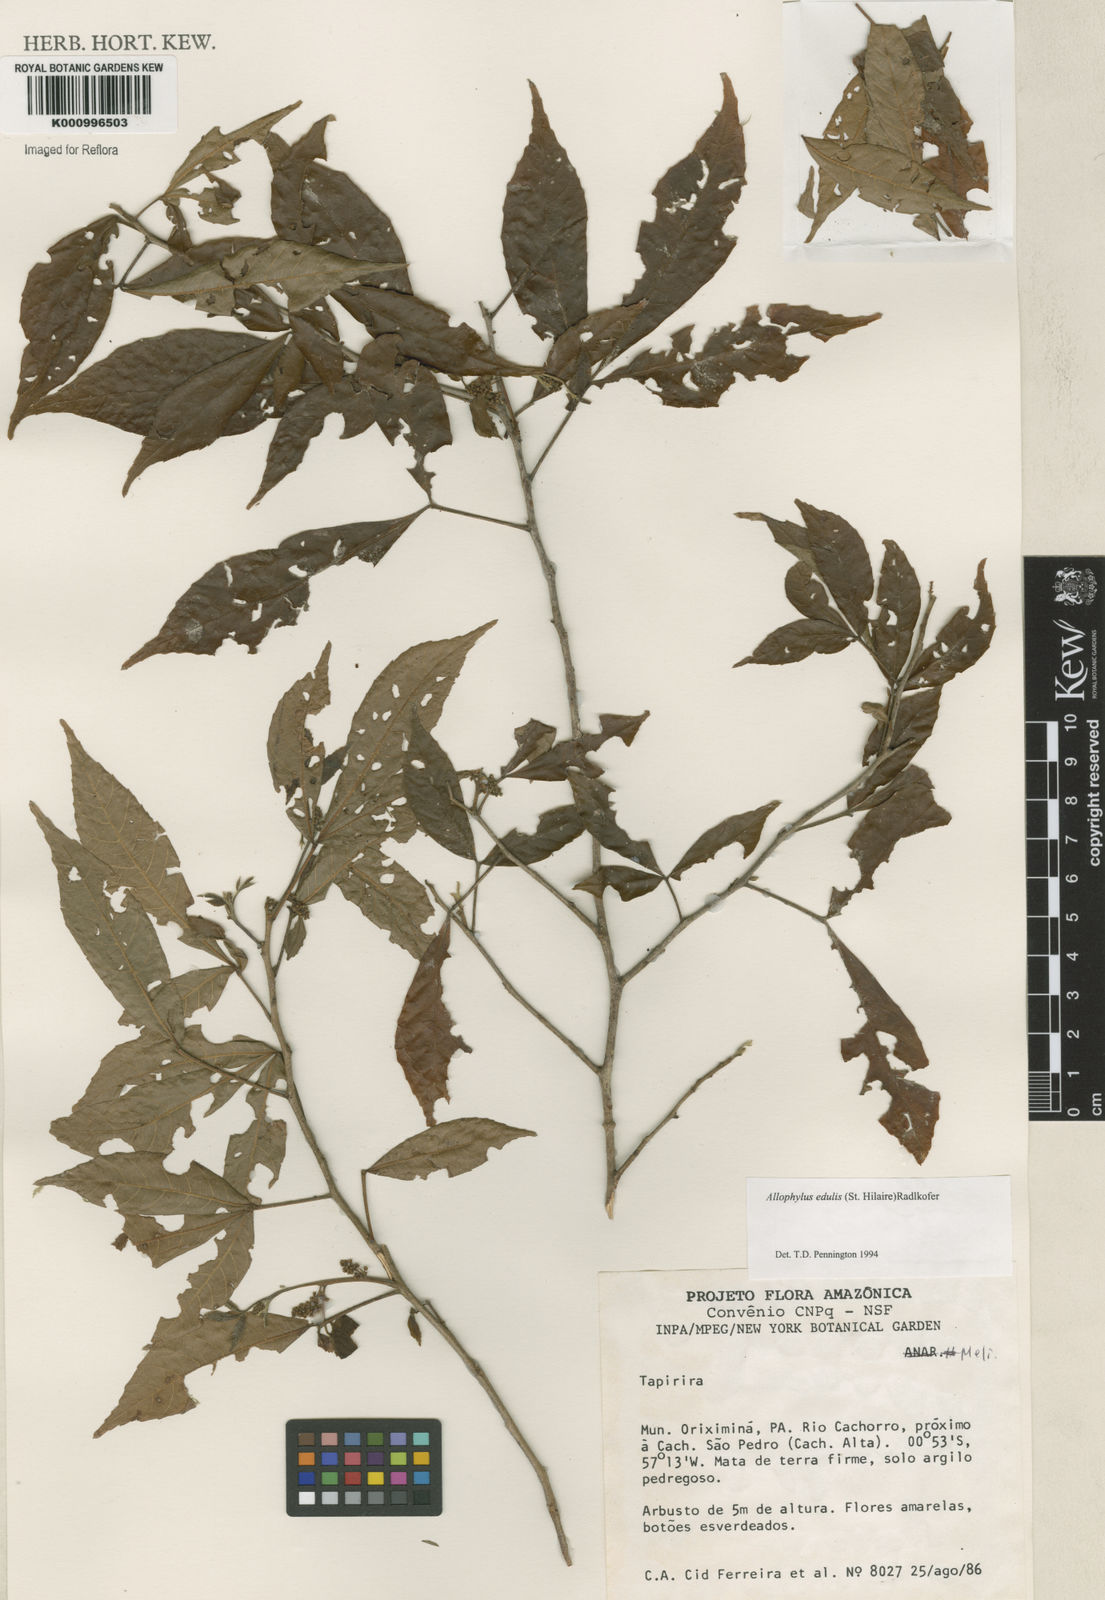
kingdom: Plantae
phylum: Tracheophyta
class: Magnoliopsida
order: Sapindales
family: Sapindaceae
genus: Allophylus
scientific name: Allophylus edulis
